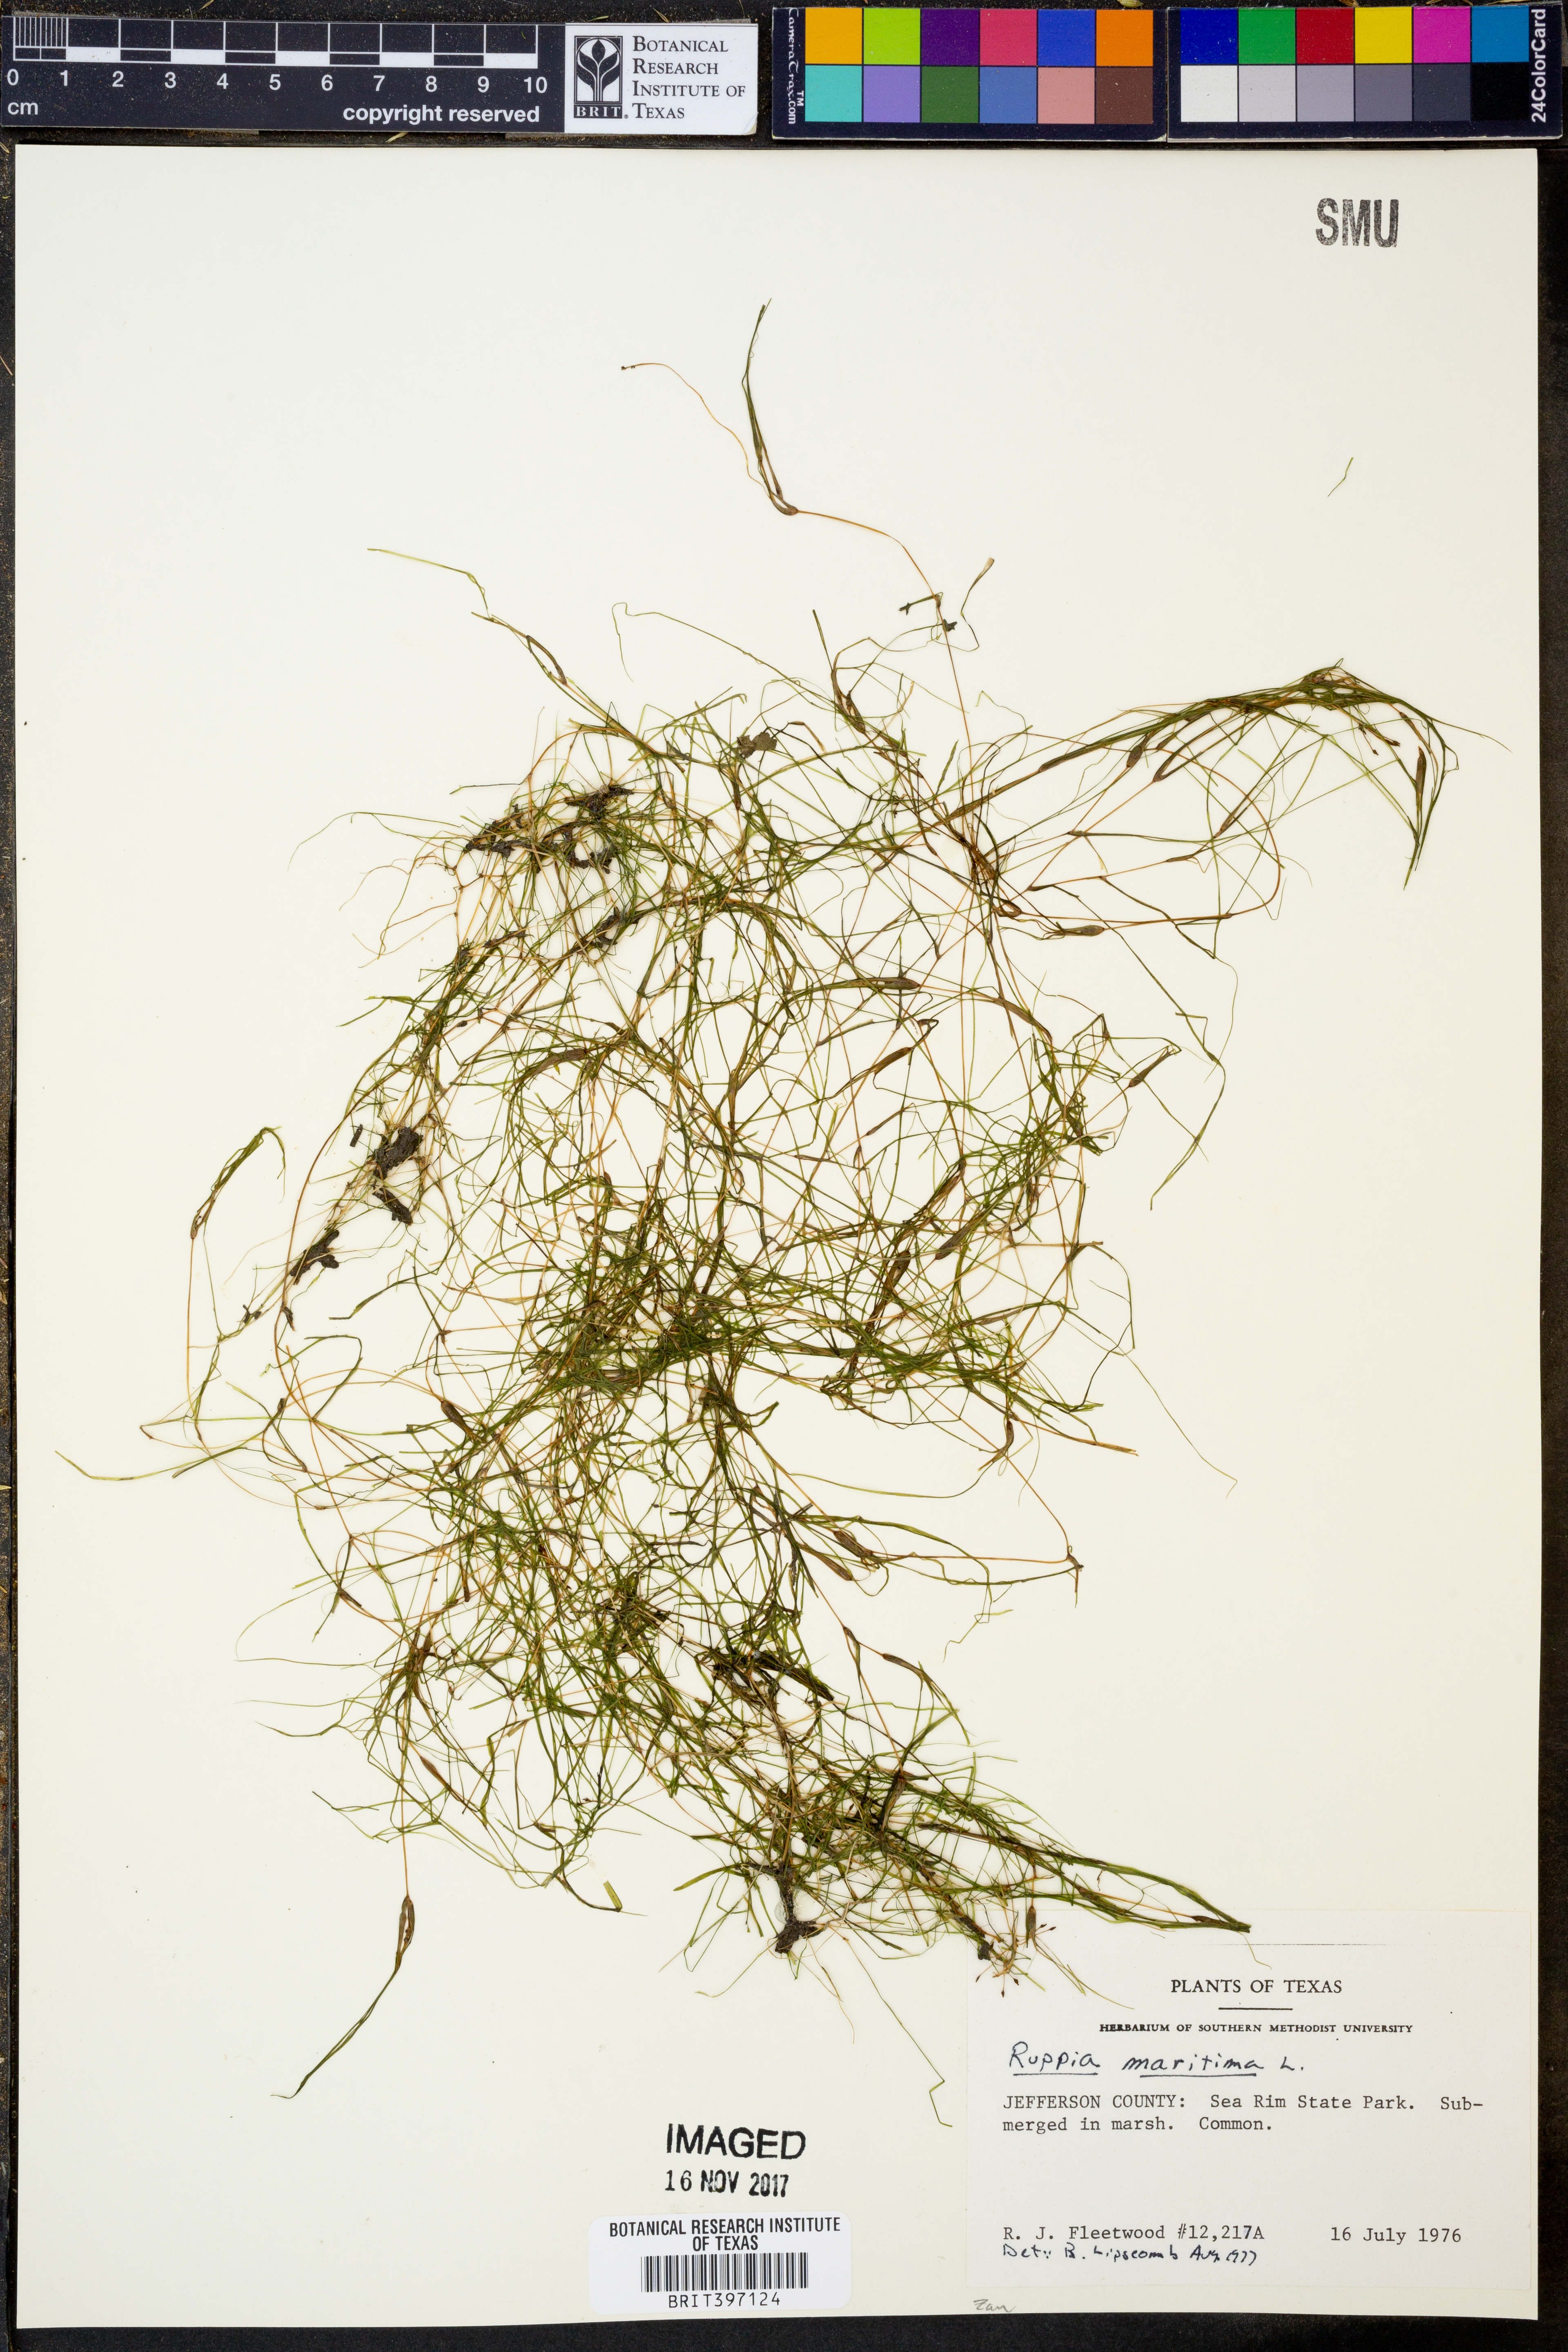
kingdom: Plantae
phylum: Tracheophyta
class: Liliopsida
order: Alismatales
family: Ruppiaceae
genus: Ruppia
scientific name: Ruppia maritima
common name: Beaked tasselweed
